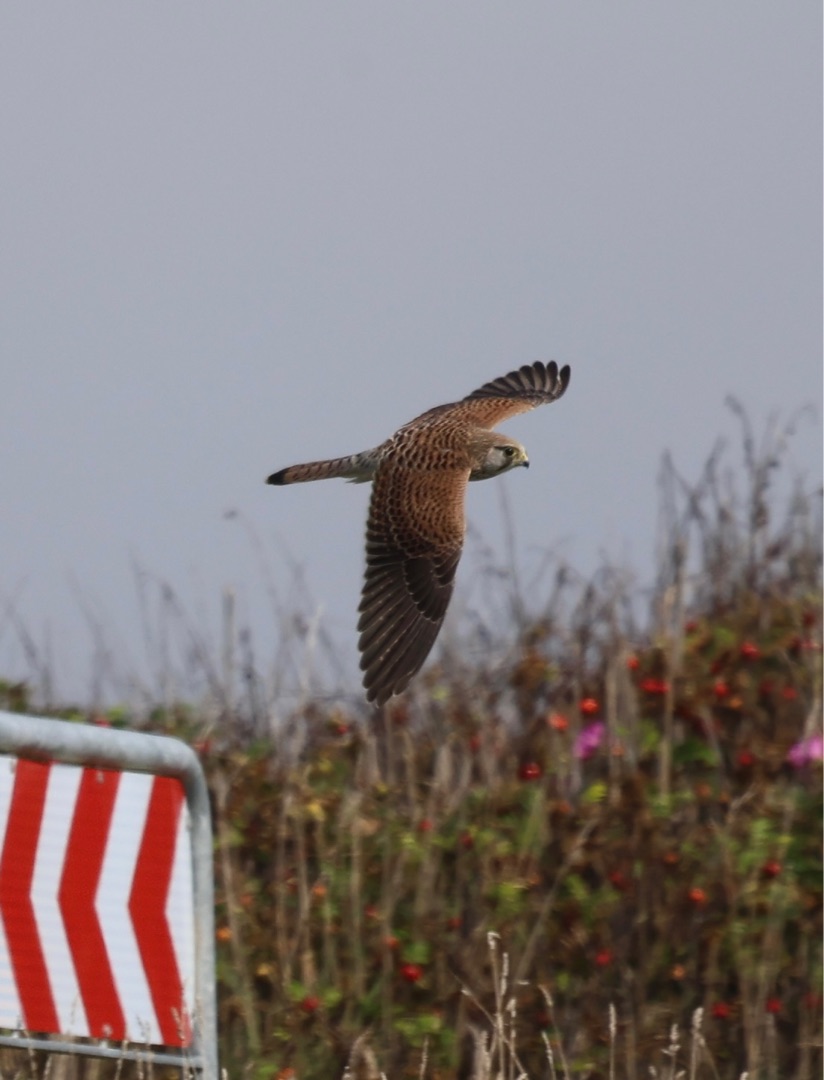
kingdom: Animalia
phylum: Chordata
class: Aves
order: Falconiformes
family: Falconidae
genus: Falco
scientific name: Falco tinnunculus
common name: Tårnfalk
